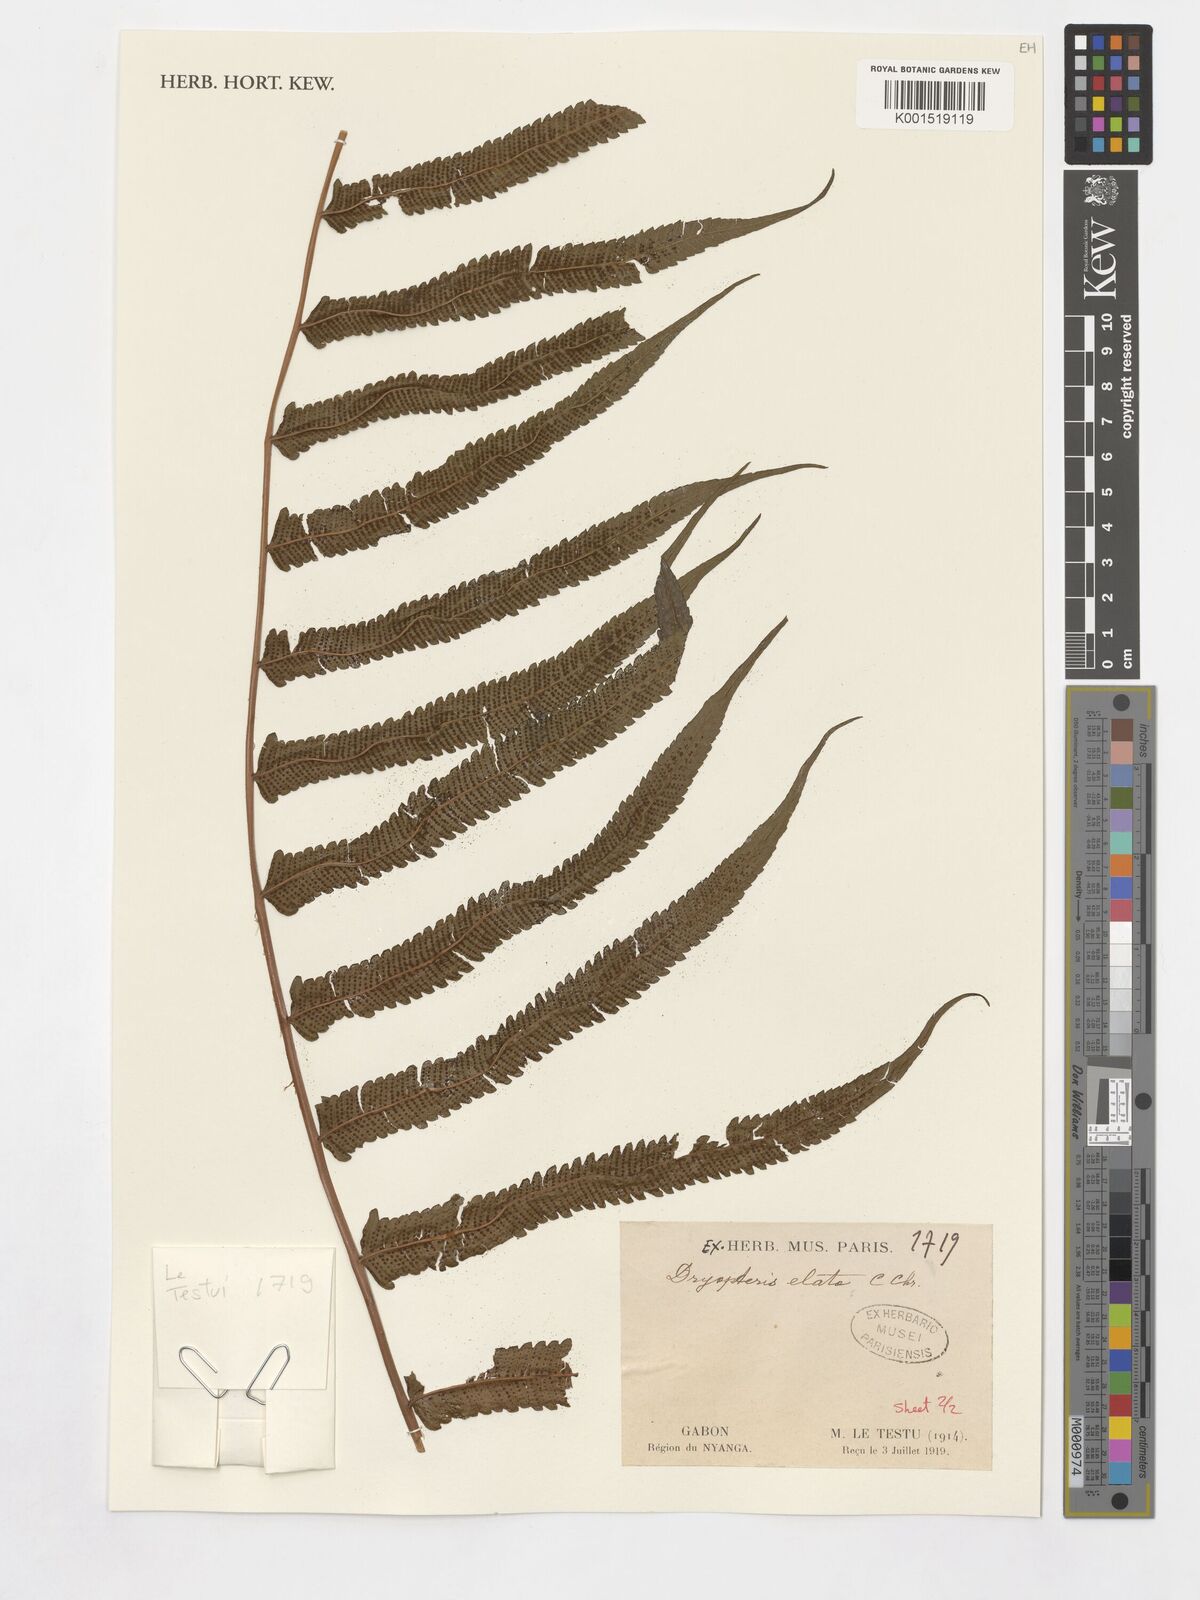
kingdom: Plantae
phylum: Tracheophyta
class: Polypodiopsida
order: Polypodiales
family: Thelypteridaceae
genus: Pneumatopteris
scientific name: Pneumatopteris venulosa
